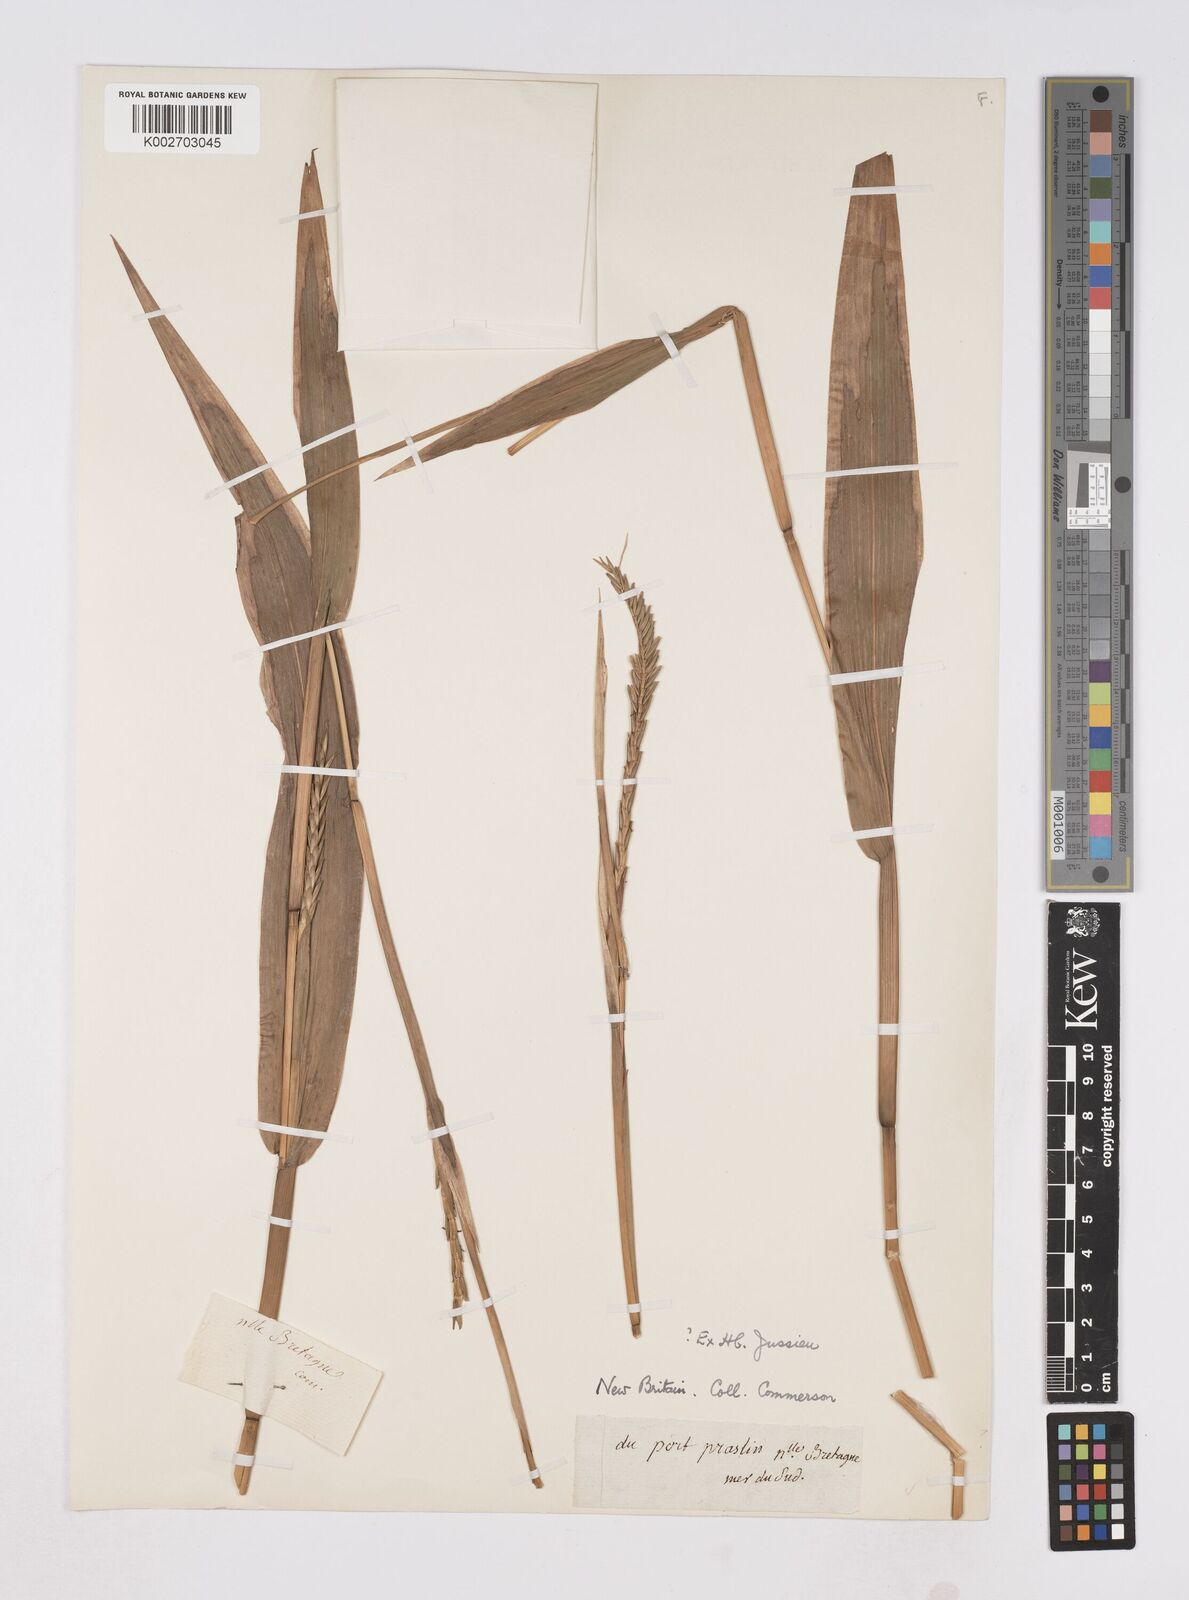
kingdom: Plantae
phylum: Tracheophyta
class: Liliopsida
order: Poales
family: Poaceae
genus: Polytoca
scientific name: Polytoca macrophylla
